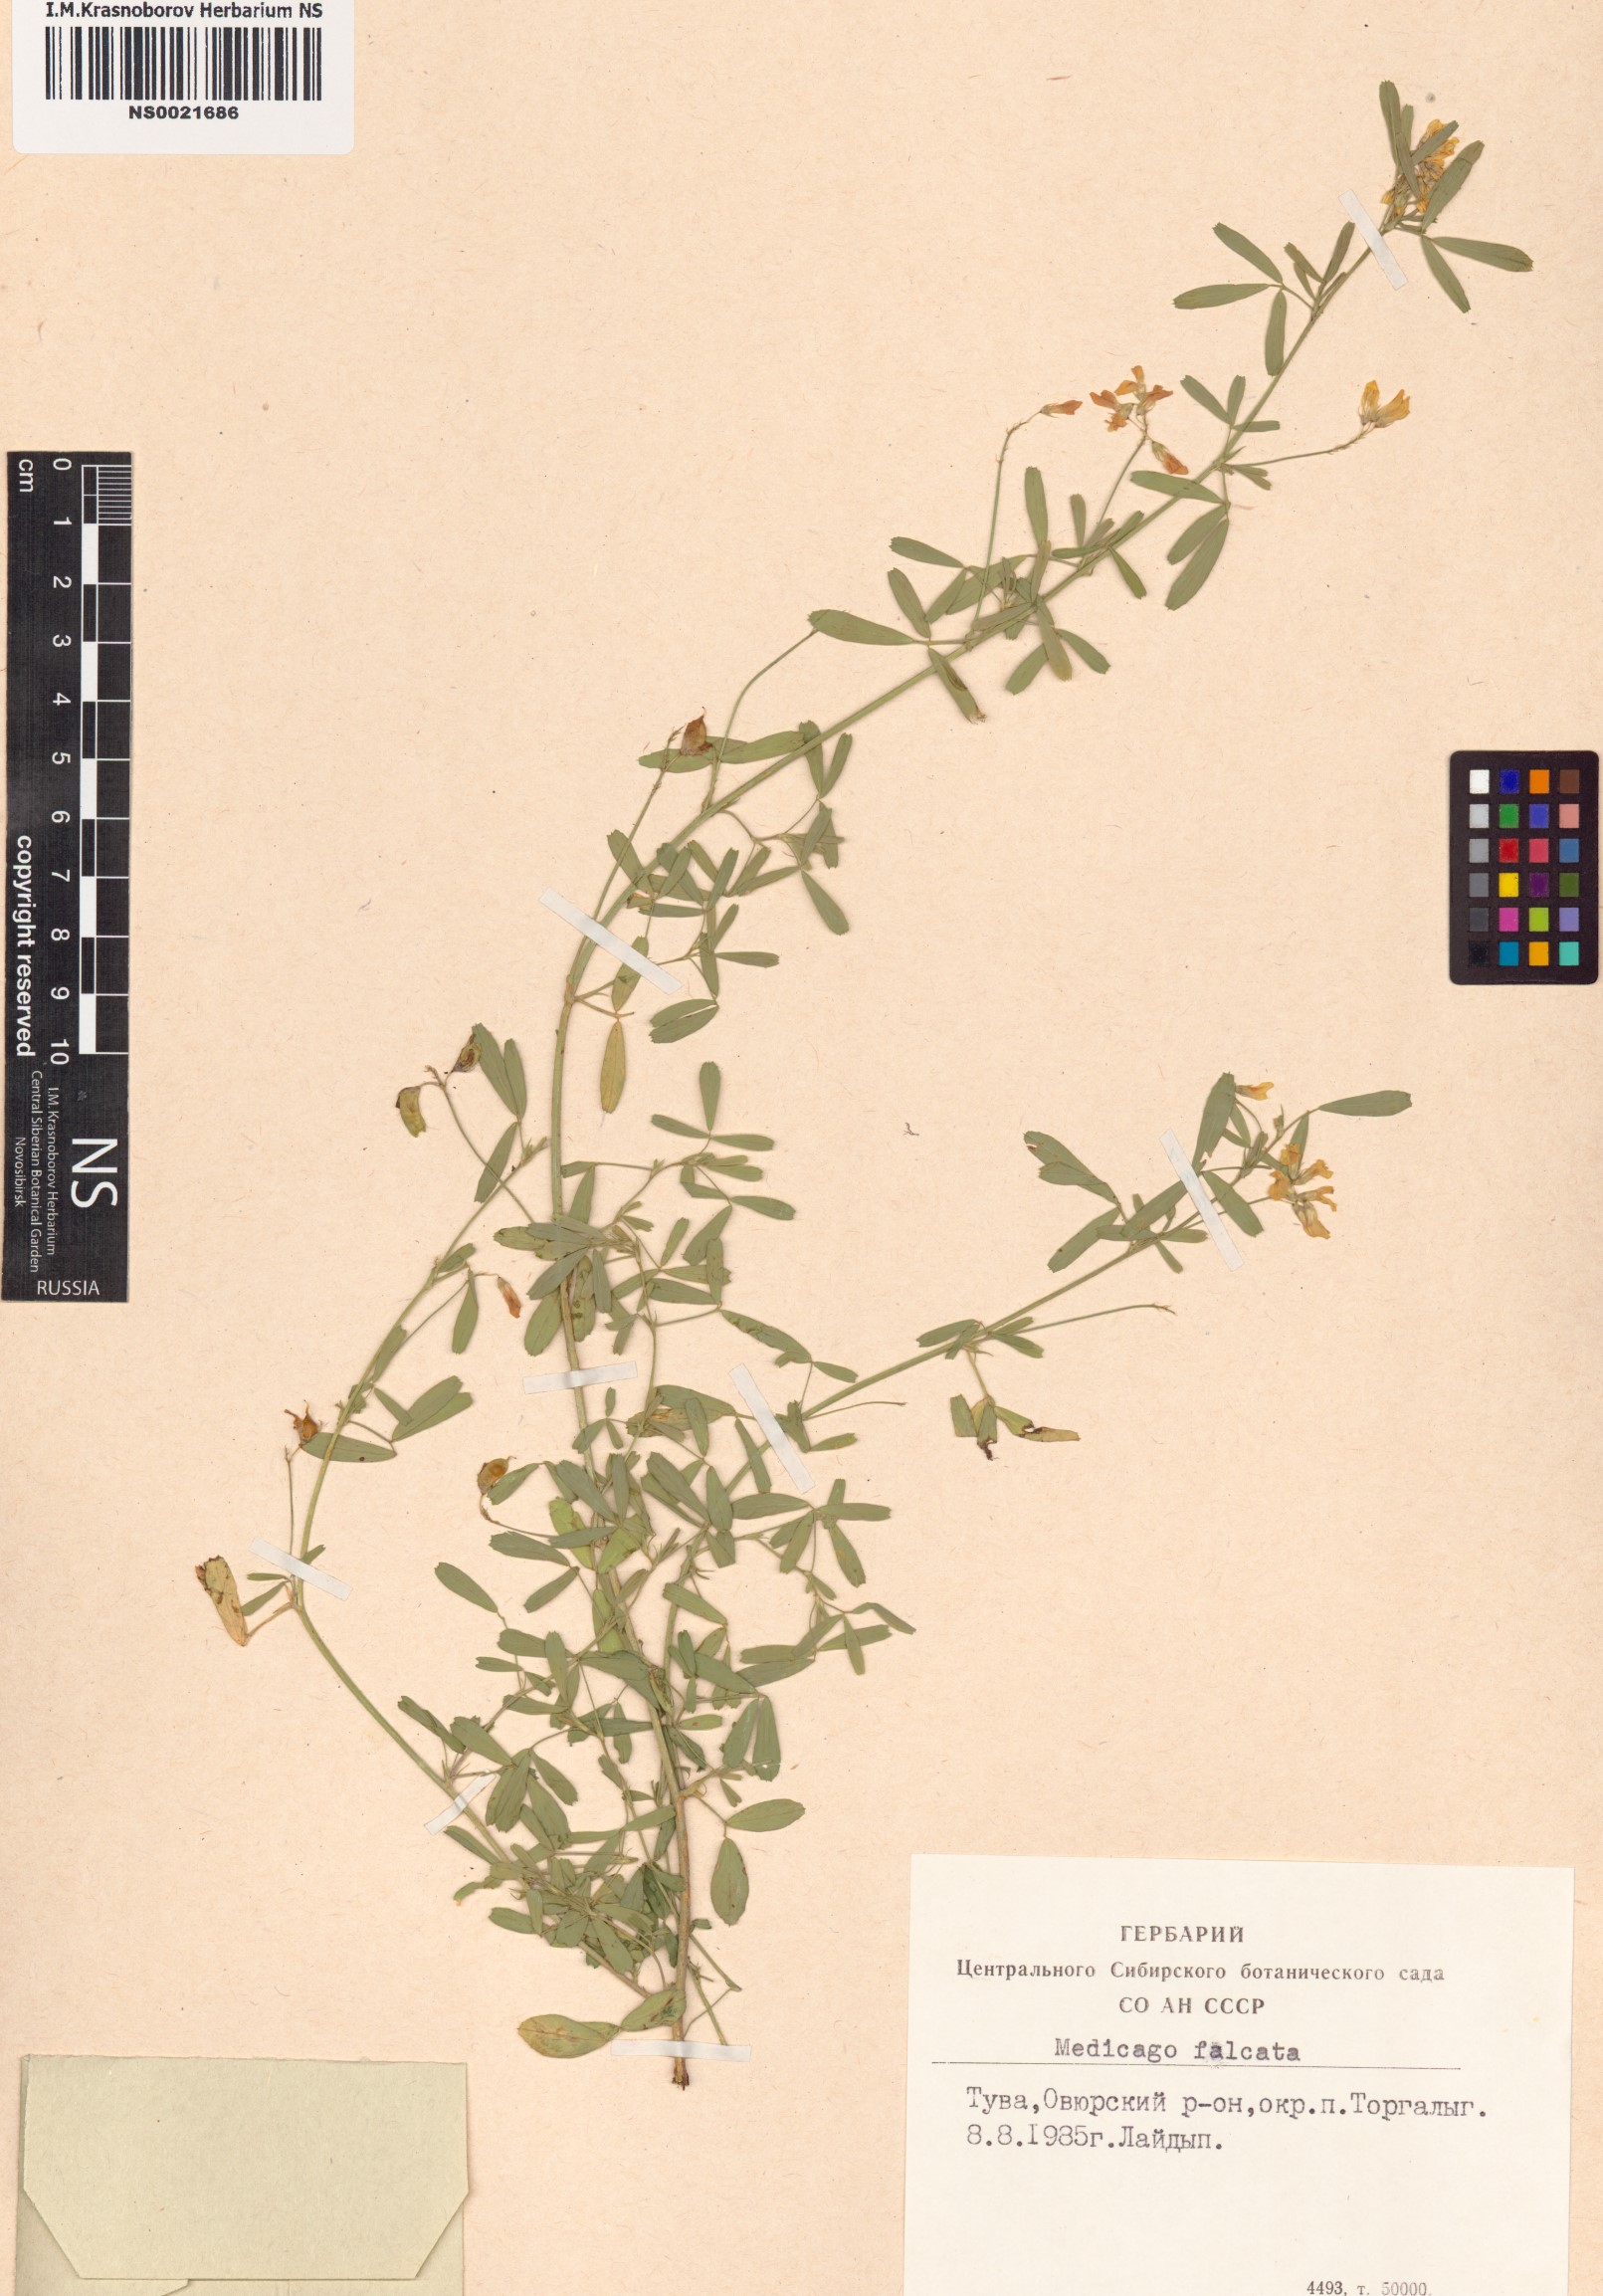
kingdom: Plantae
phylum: Tracheophyta
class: Magnoliopsida
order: Fabales
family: Fabaceae
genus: Medicago
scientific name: Medicago falcata
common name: Sickle medick
